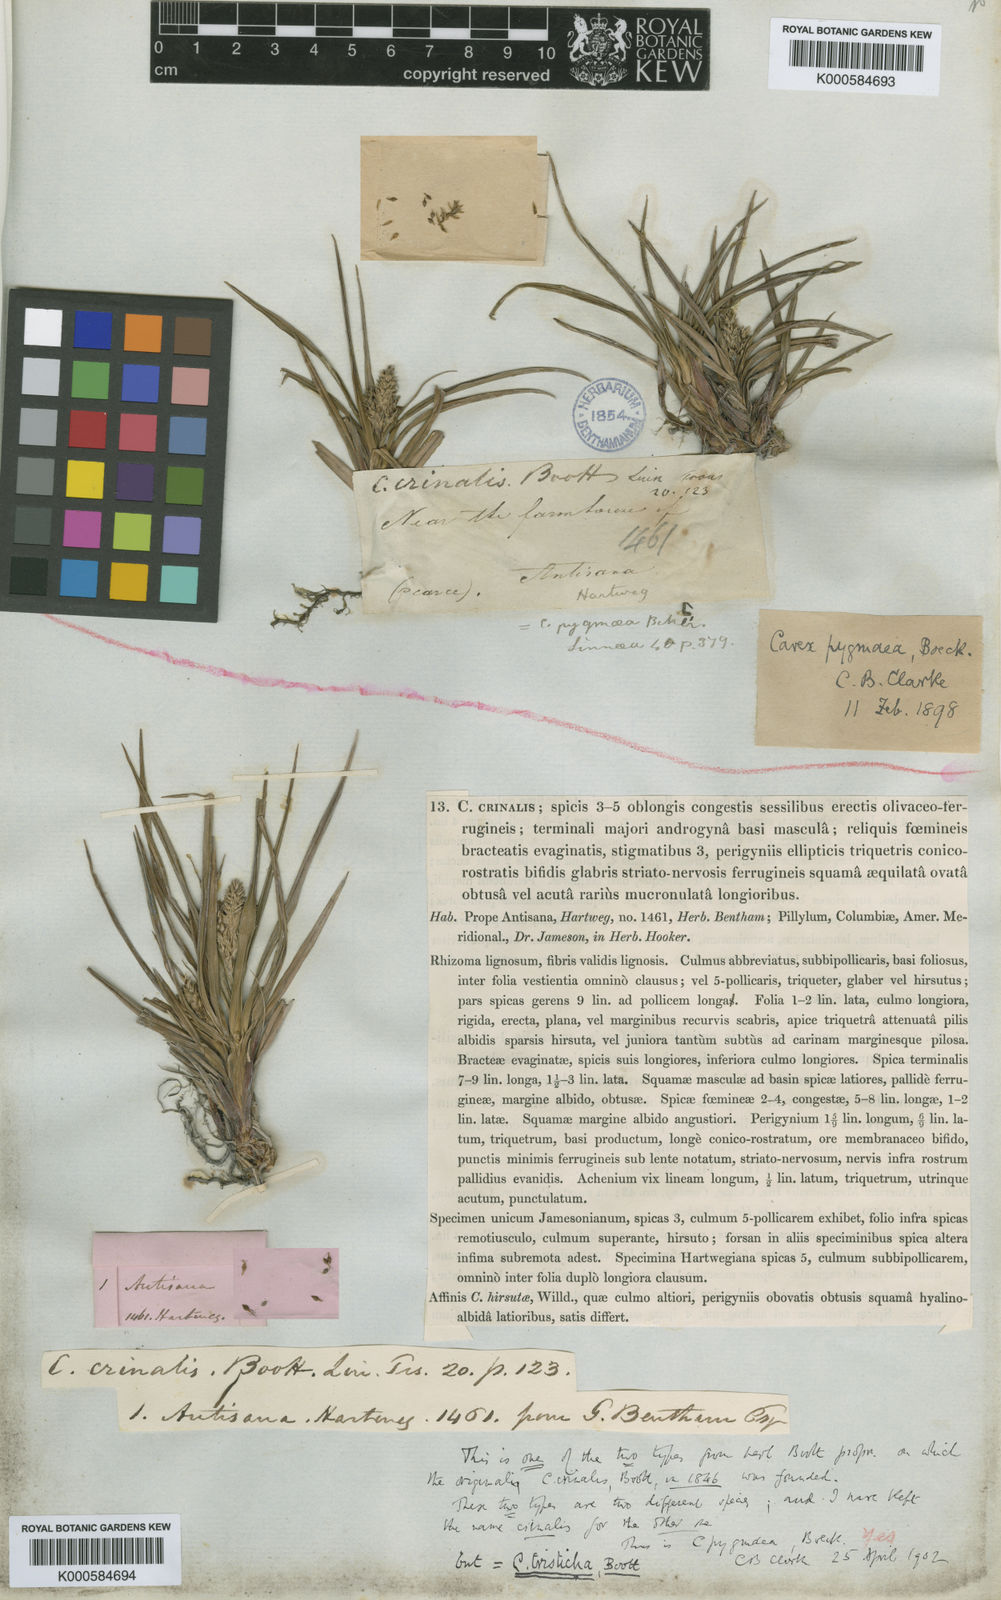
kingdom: Plantae
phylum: Tracheophyta
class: Liliopsida
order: Poales
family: Cyperaceae
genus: Carex
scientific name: Carex pygmaea
